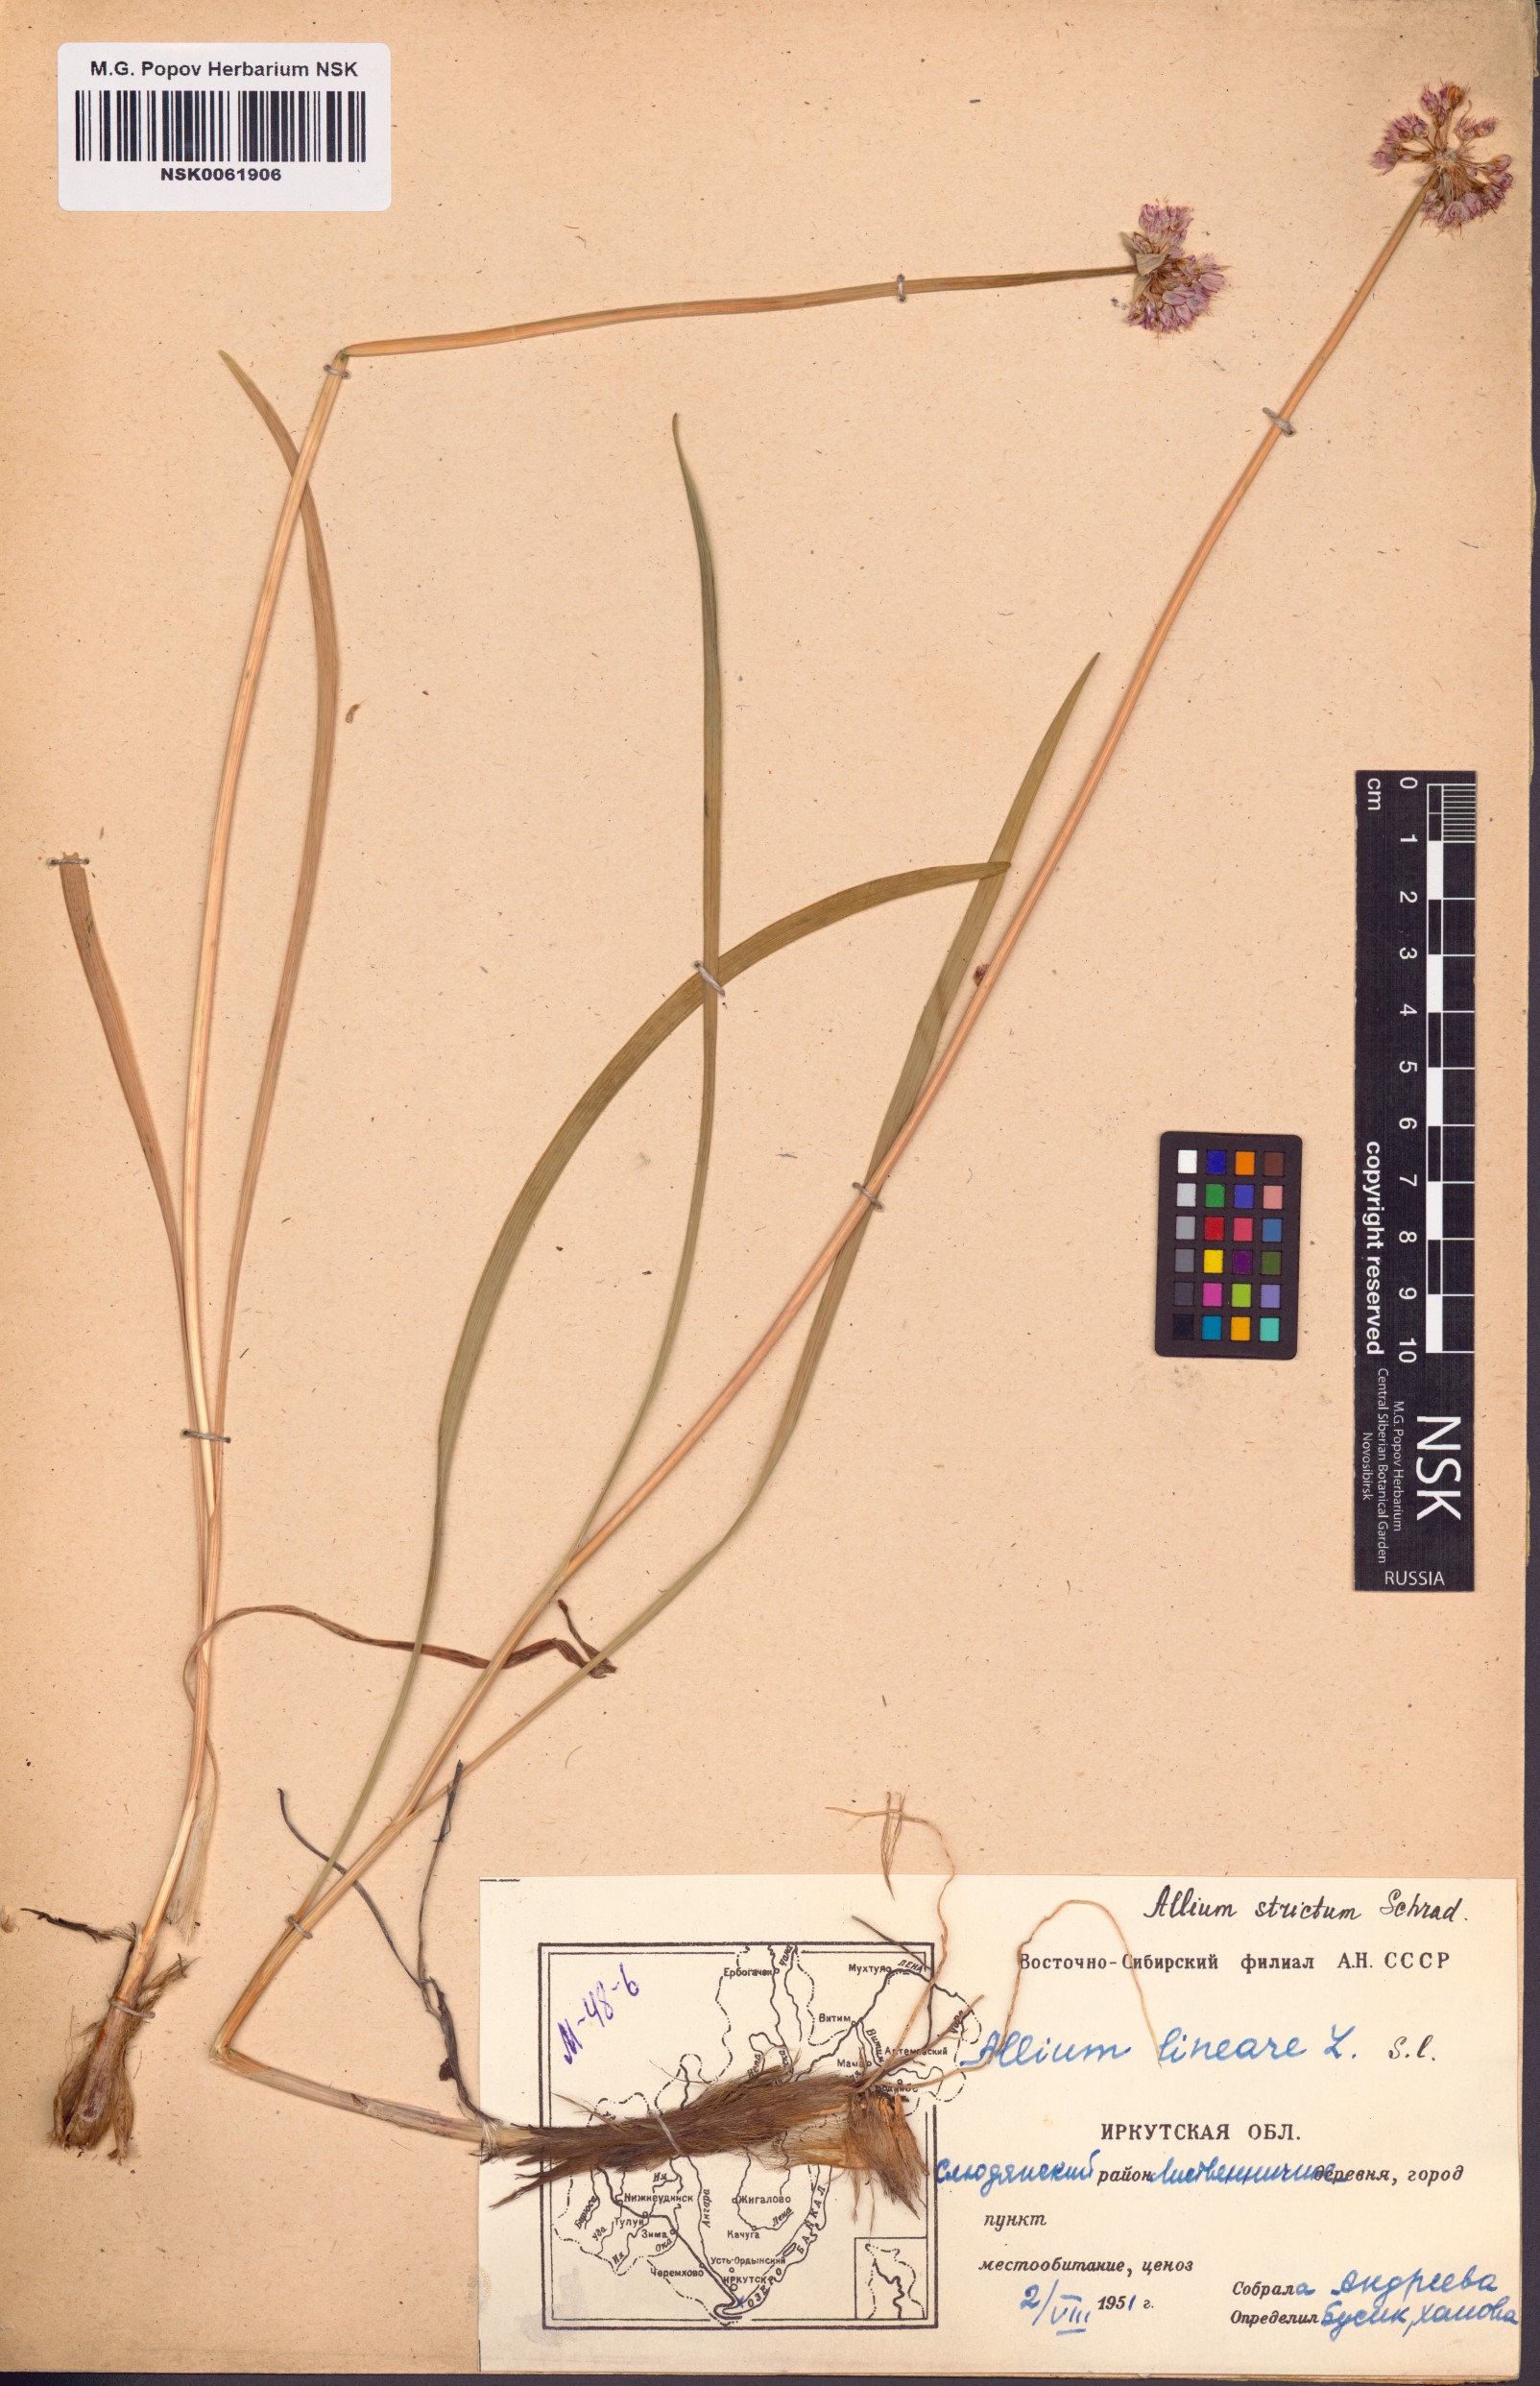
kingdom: Plantae
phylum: Tracheophyta
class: Liliopsida
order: Asparagales
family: Amaryllidaceae
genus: Allium
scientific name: Allium strictum
